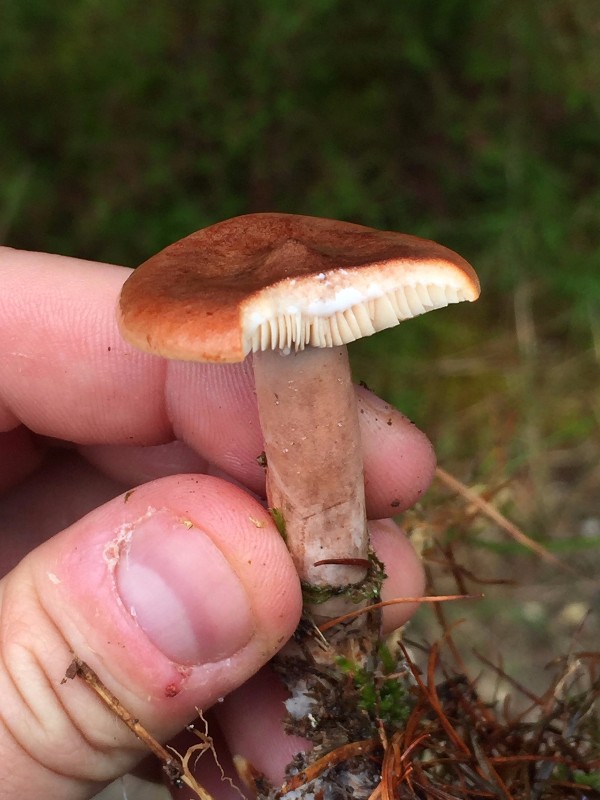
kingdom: Fungi
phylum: Basidiomycota
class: Agaricomycetes
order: Russulales
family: Russulaceae
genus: Lactarius
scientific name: Lactarius rufus
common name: rødbrun mælkehat
